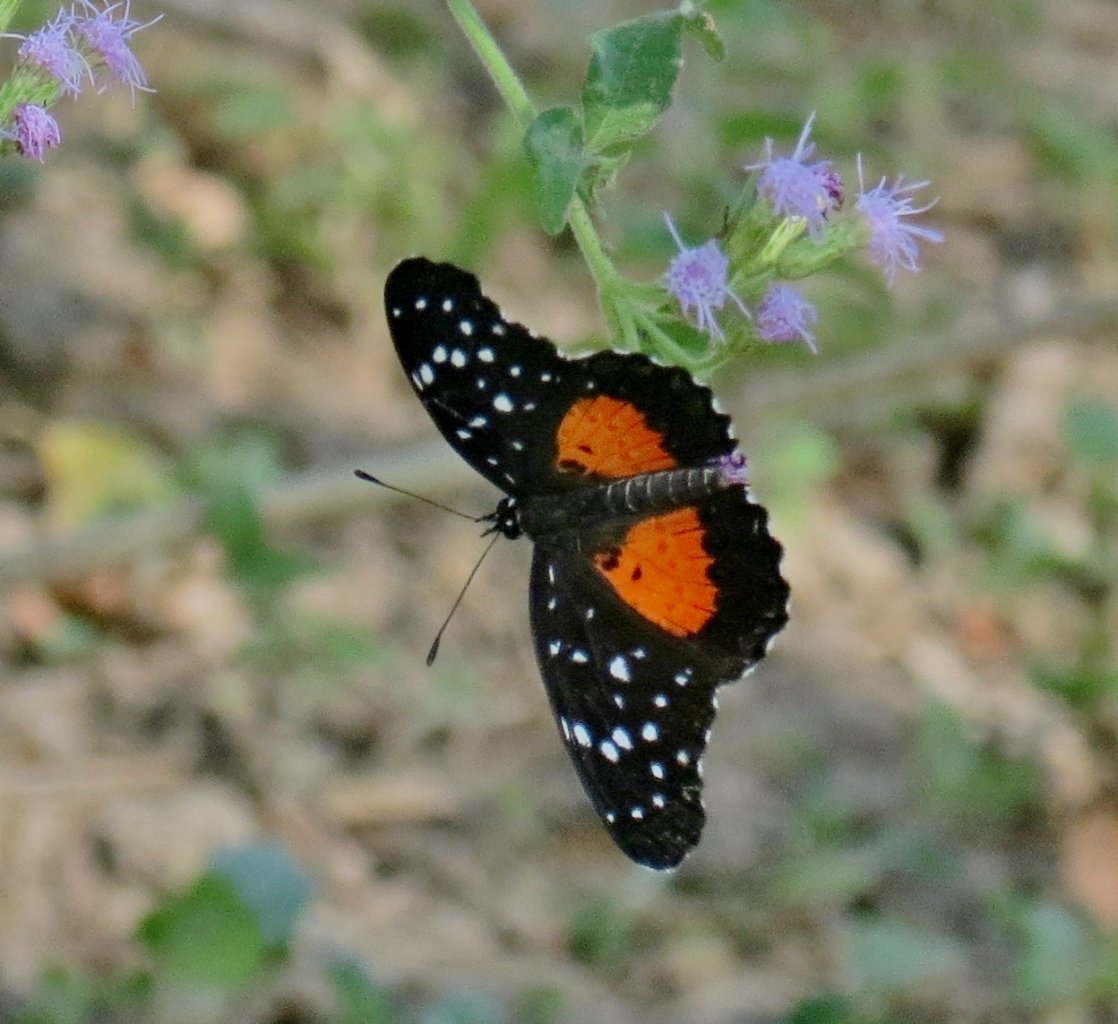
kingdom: Animalia
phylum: Arthropoda
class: Insecta
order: Lepidoptera
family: Nymphalidae
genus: Chlosyne
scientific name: Chlosyne janais
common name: Crimson Patch
